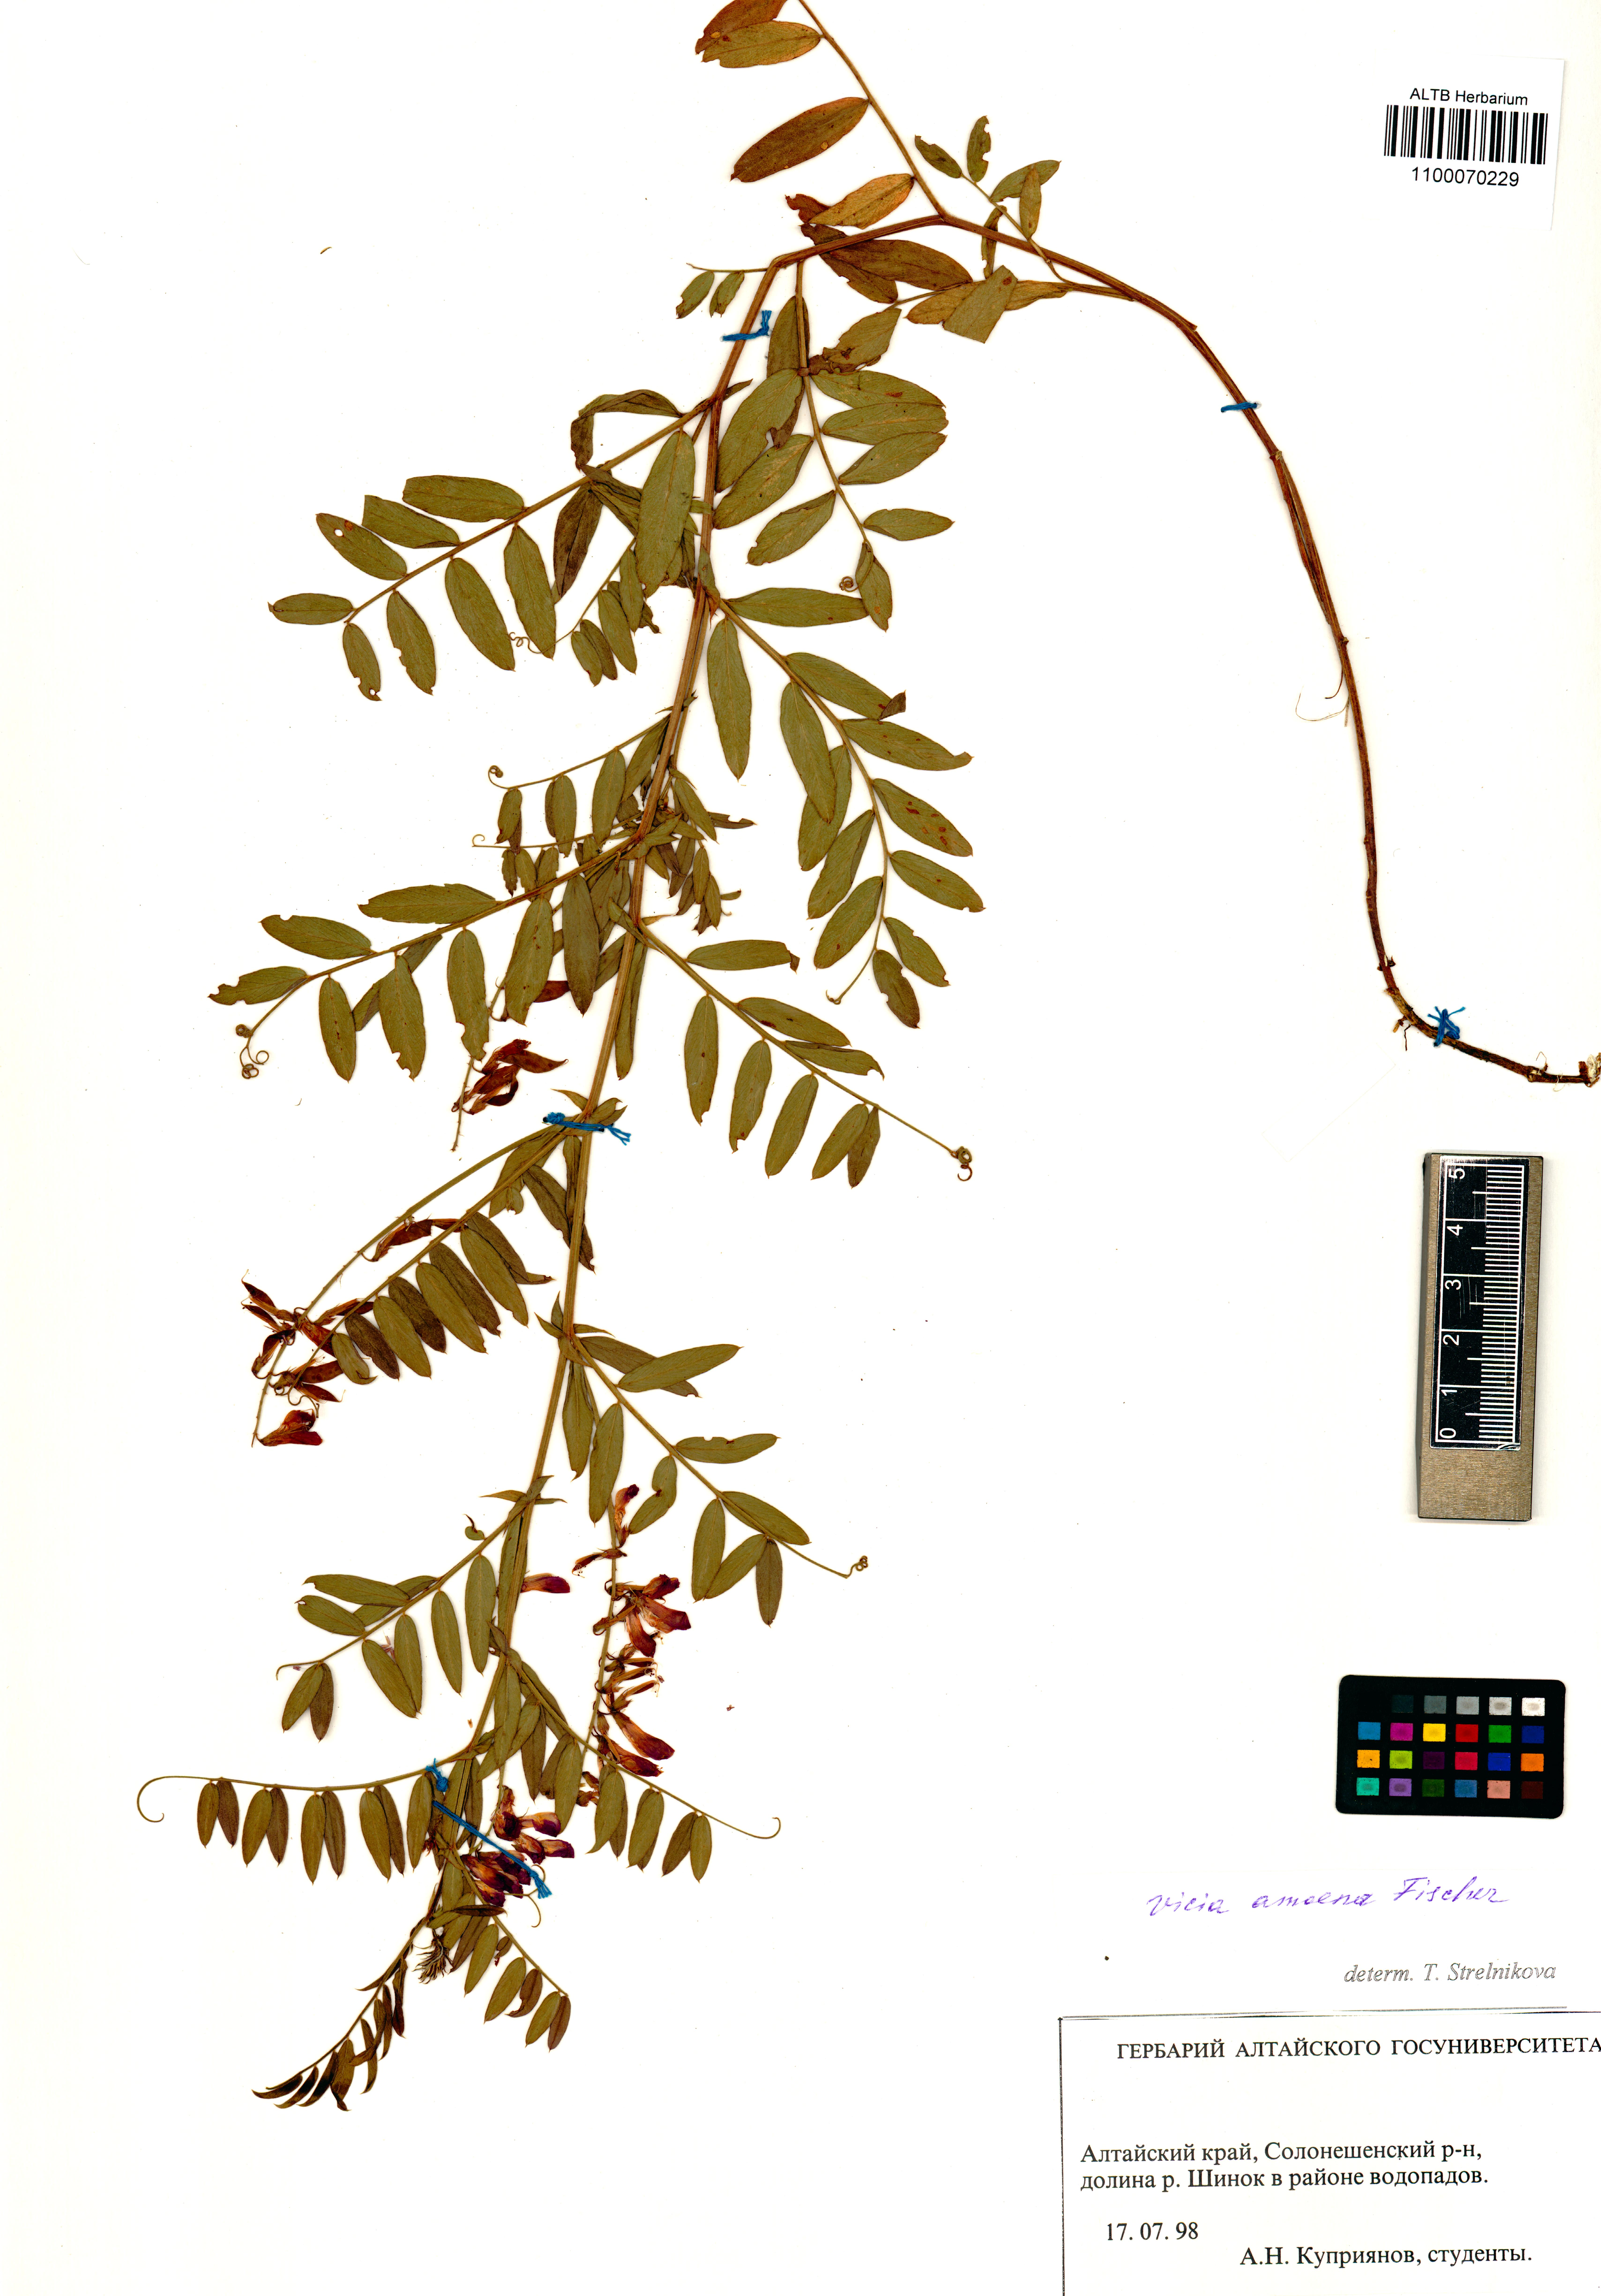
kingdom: Plantae
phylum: Tracheophyta
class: Magnoliopsida
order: Fabales
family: Fabaceae
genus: Vicia
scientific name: Vicia amoena
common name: Cheder ebs
